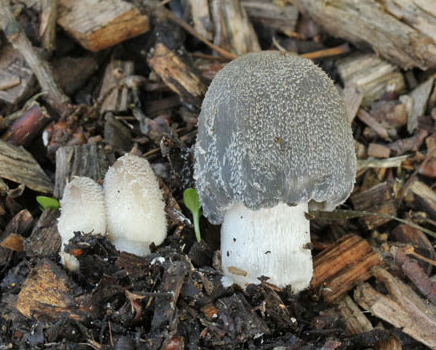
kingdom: Fungi
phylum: Basidiomycota
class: Agaricomycetes
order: Agaricales
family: Psathyrellaceae
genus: Coprinopsis
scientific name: Coprinopsis lagopus
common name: dunstokket blækhat
